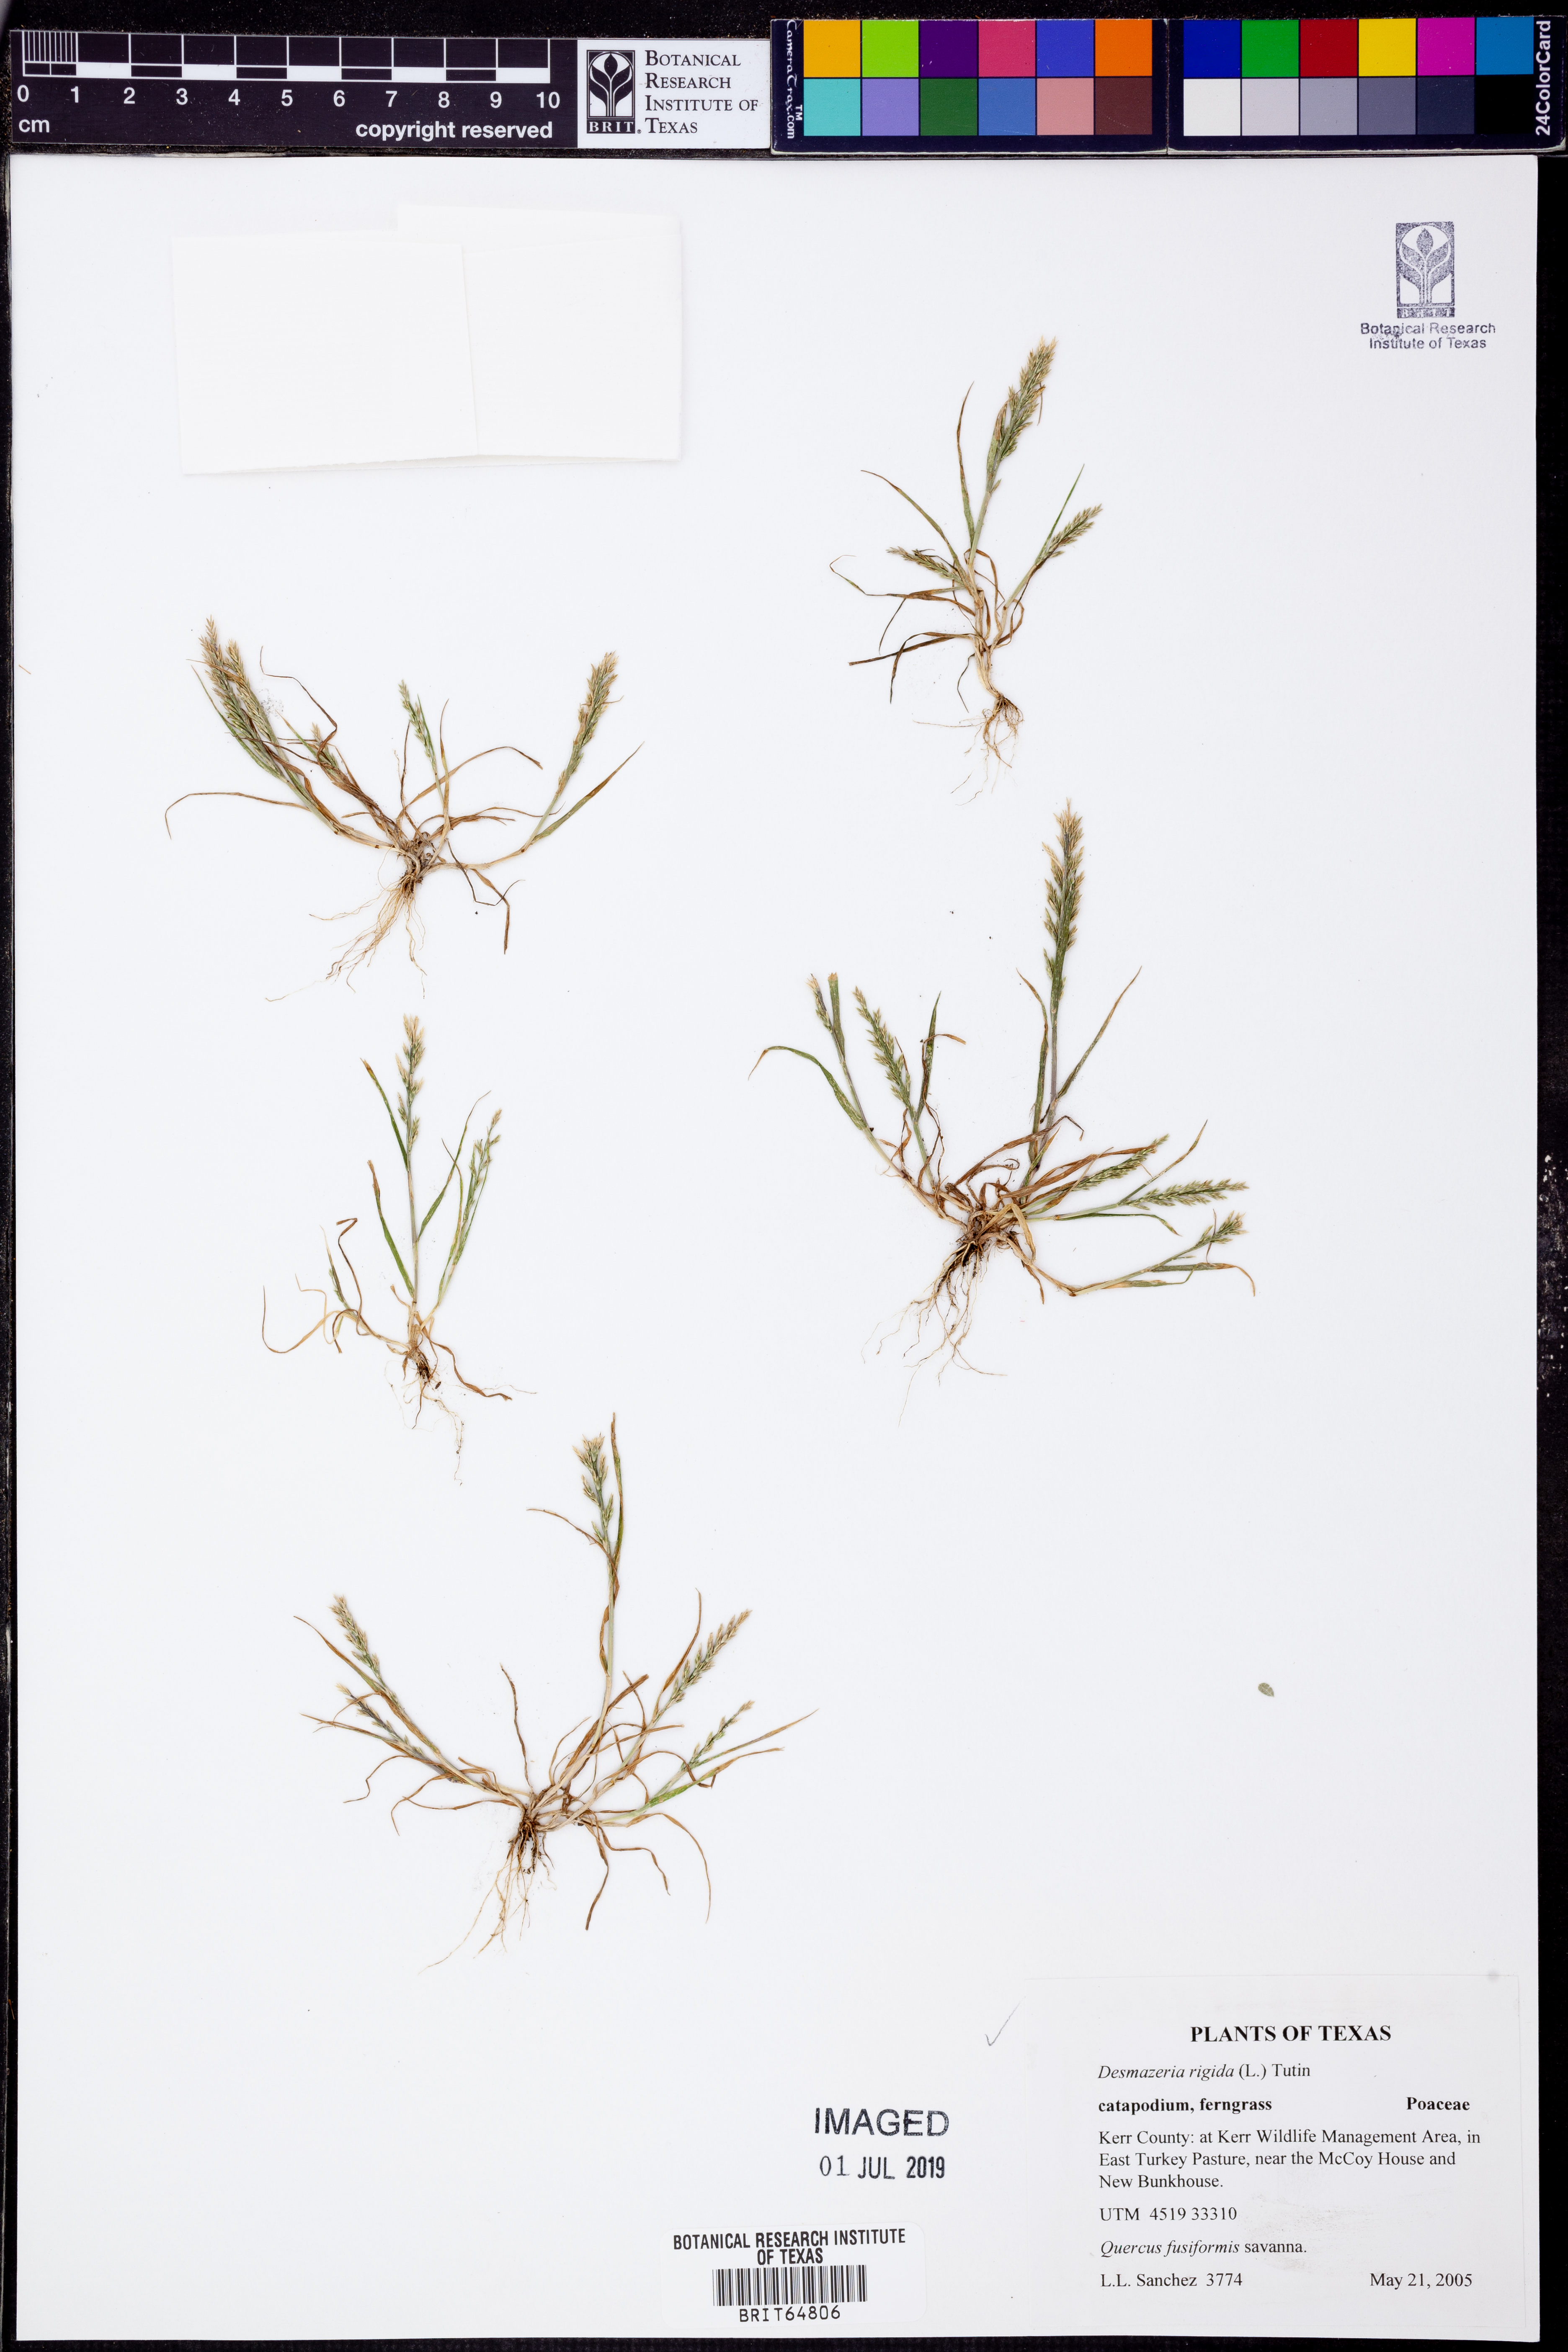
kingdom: Plantae
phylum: Tracheophyta
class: Liliopsida
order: Poales
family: Poaceae
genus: Catapodium
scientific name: Catapodium rigidum
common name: Fern-grass
